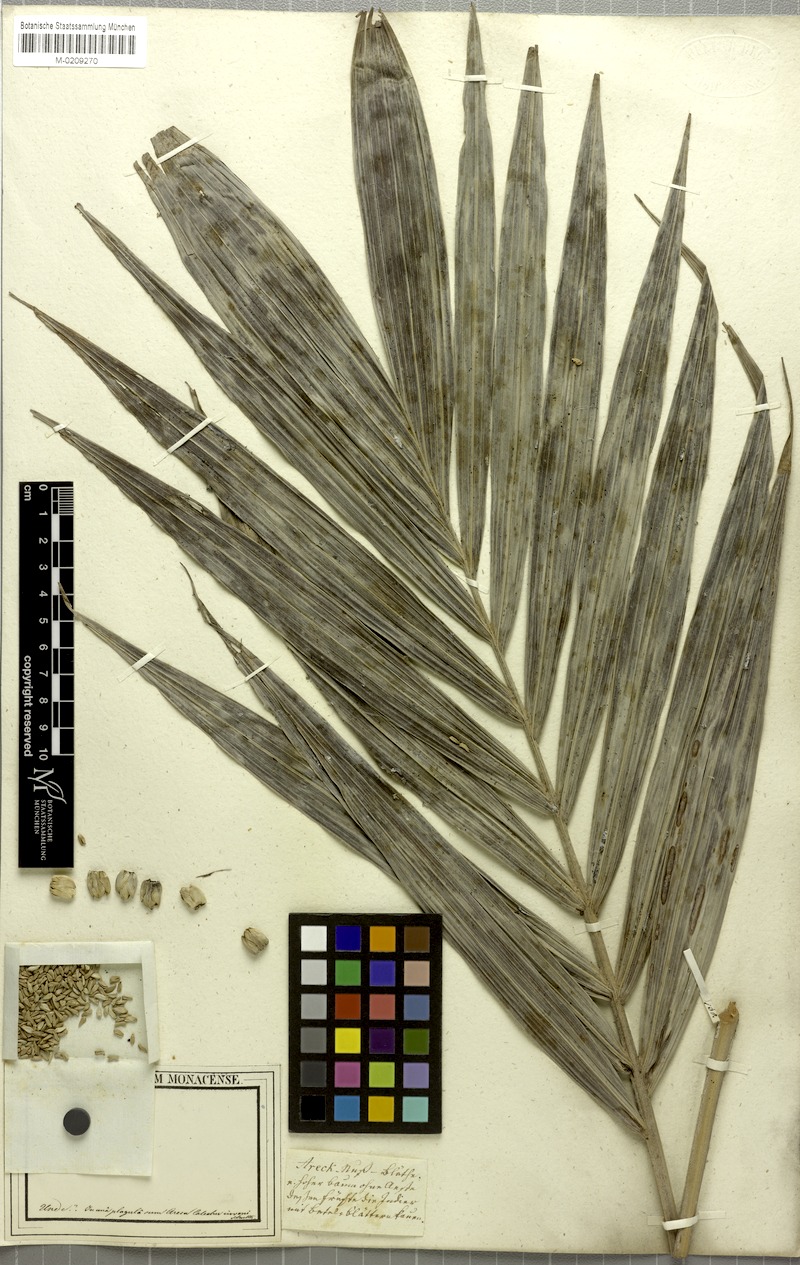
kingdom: Plantae
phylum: Tracheophyta
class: Liliopsida
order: Arecales
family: Arecaceae
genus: Dictyosperma
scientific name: Dictyosperma album
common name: Common princess palm
